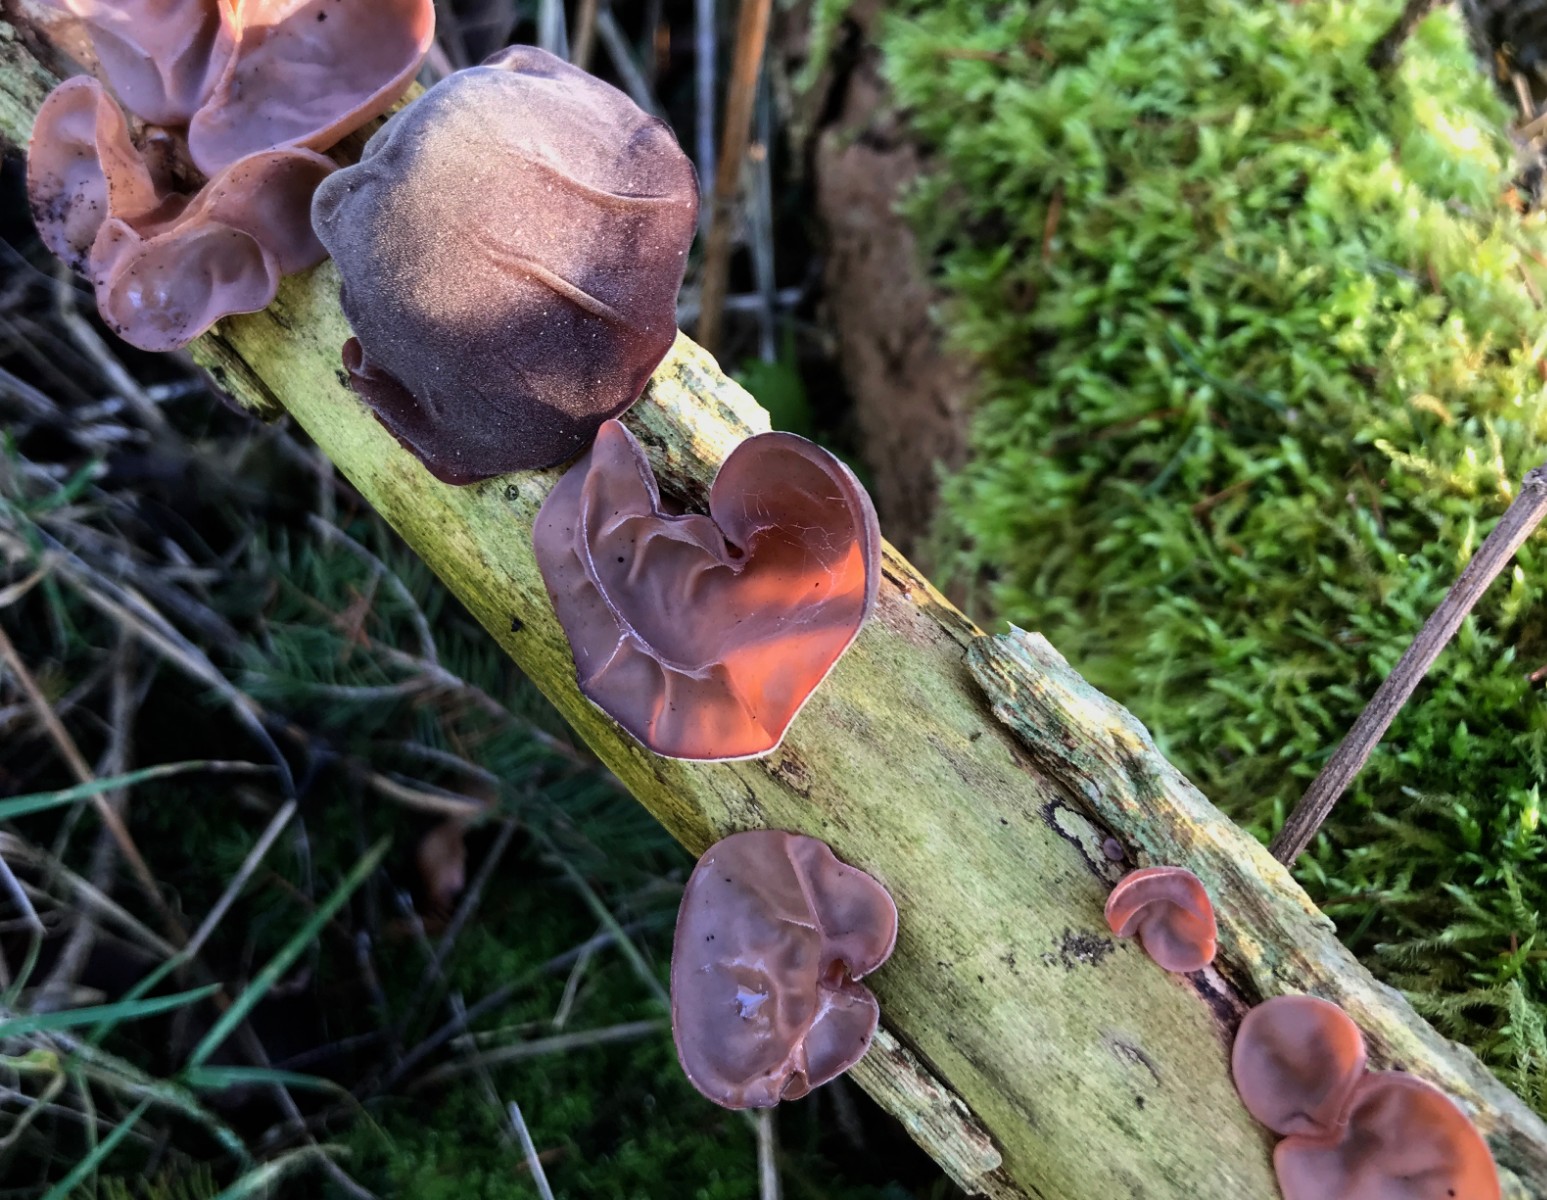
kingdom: Fungi
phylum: Basidiomycota
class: Agaricomycetes
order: Auriculariales
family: Auriculariaceae
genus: Auricularia
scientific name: Auricularia auricula-judae
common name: almindelig judasøre
